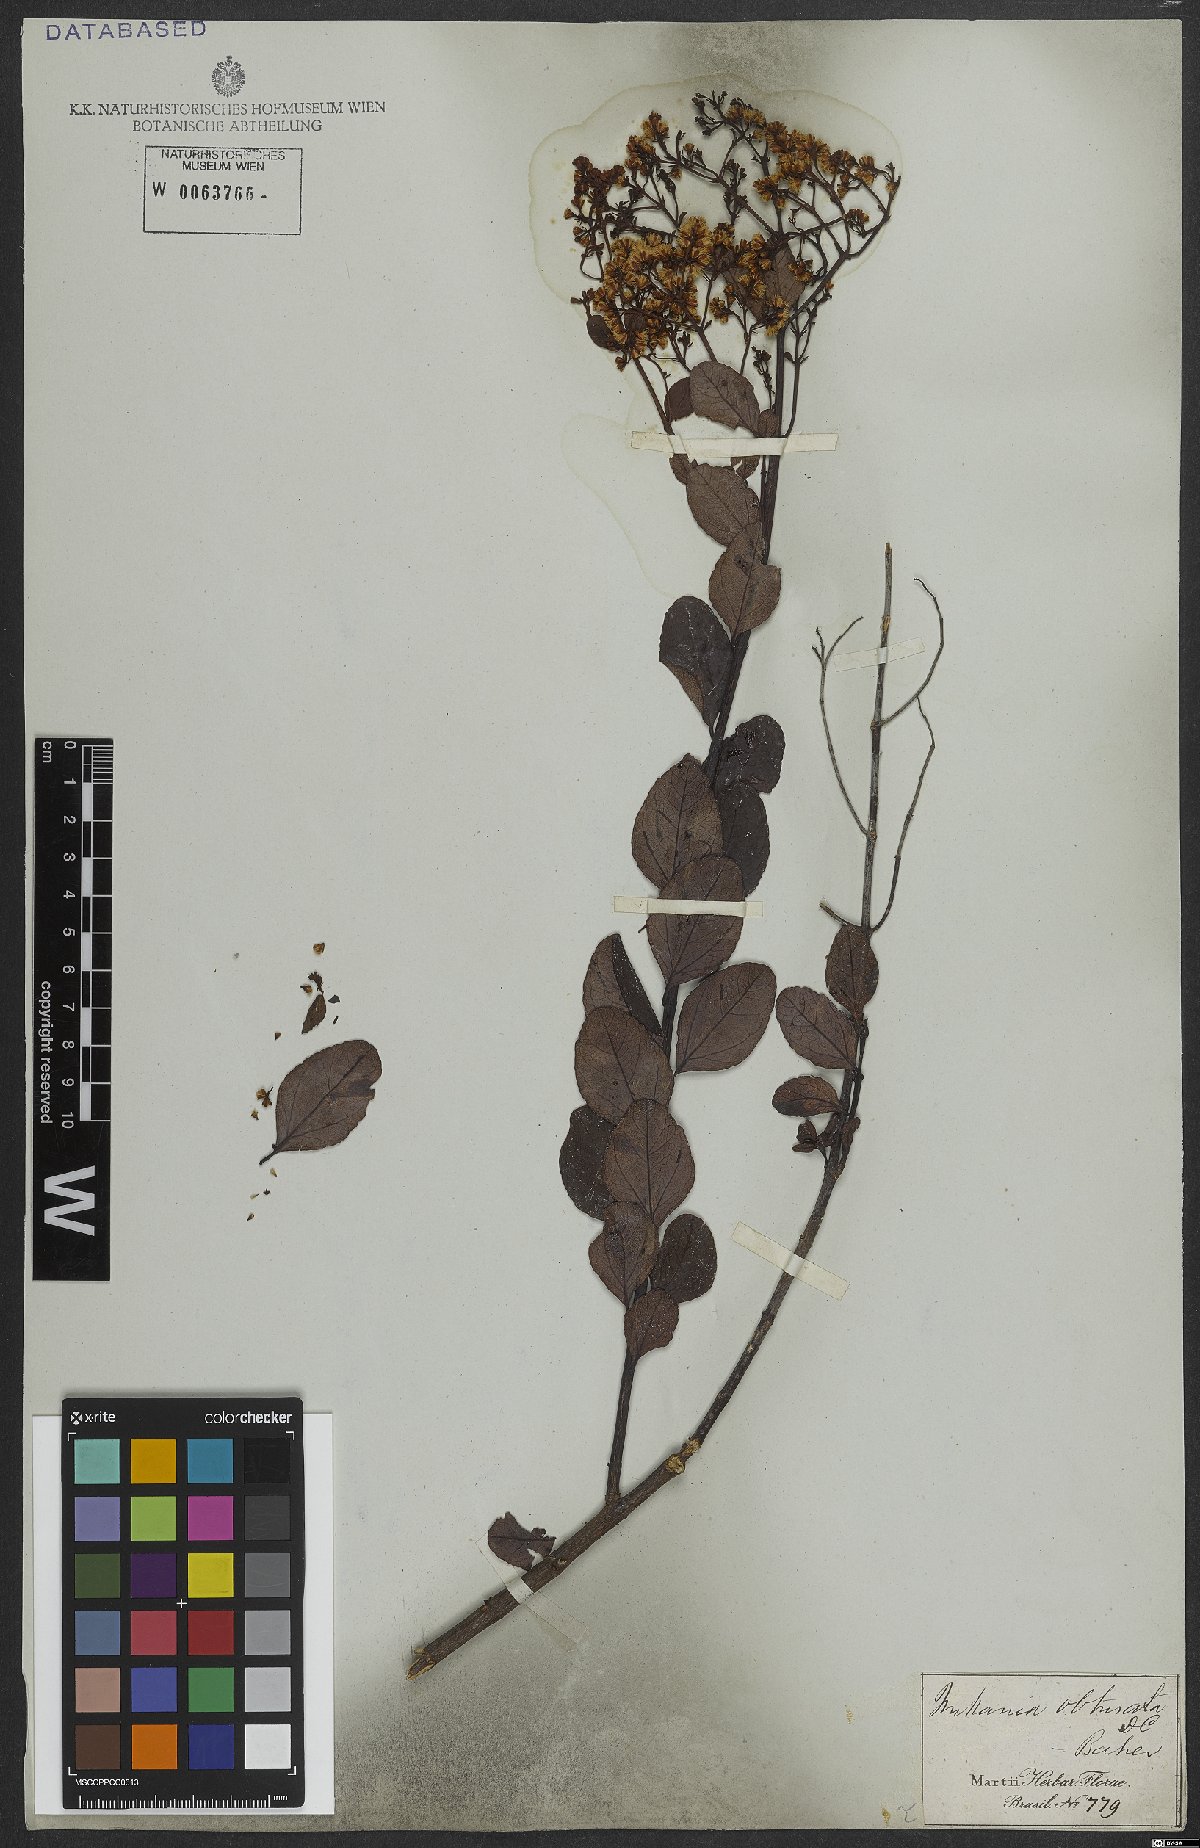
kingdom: Plantae
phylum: Tracheophyta
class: Magnoliopsida
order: Asterales
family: Asteraceae
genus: Mikania
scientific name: Mikania obtusata
